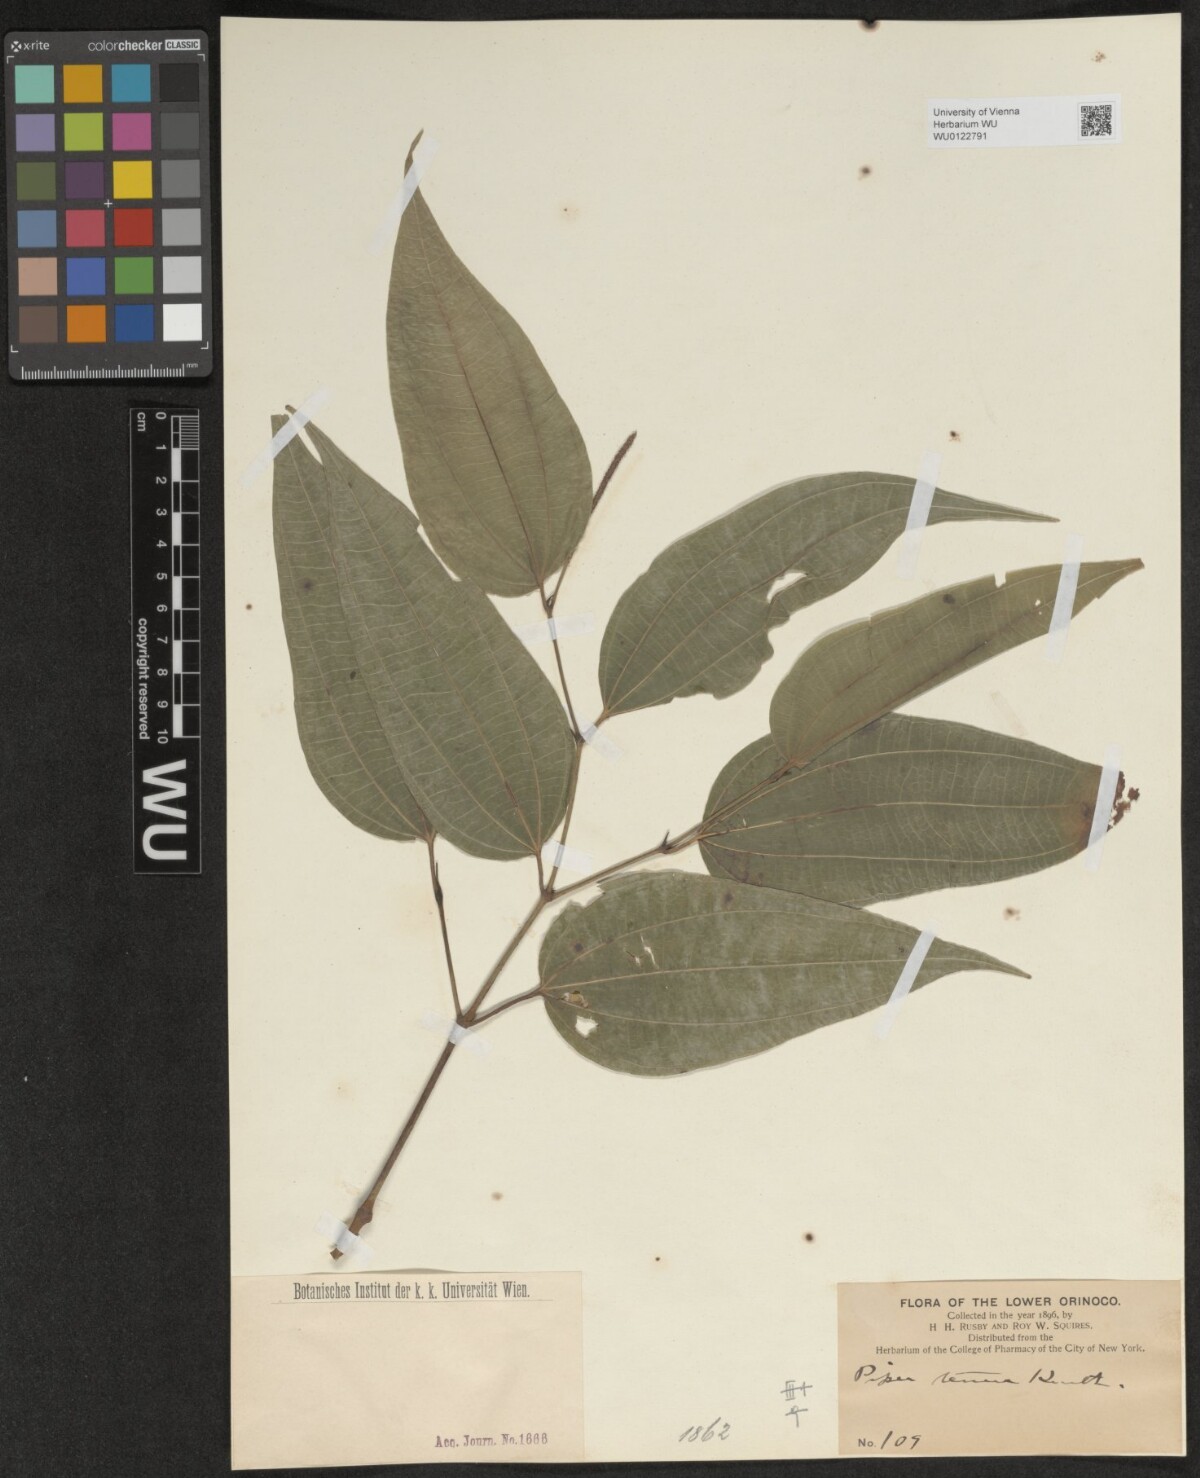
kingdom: Plantae
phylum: Tracheophyta
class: Magnoliopsida
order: Piperales
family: Piperaceae
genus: Piper
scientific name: Piper tenue
